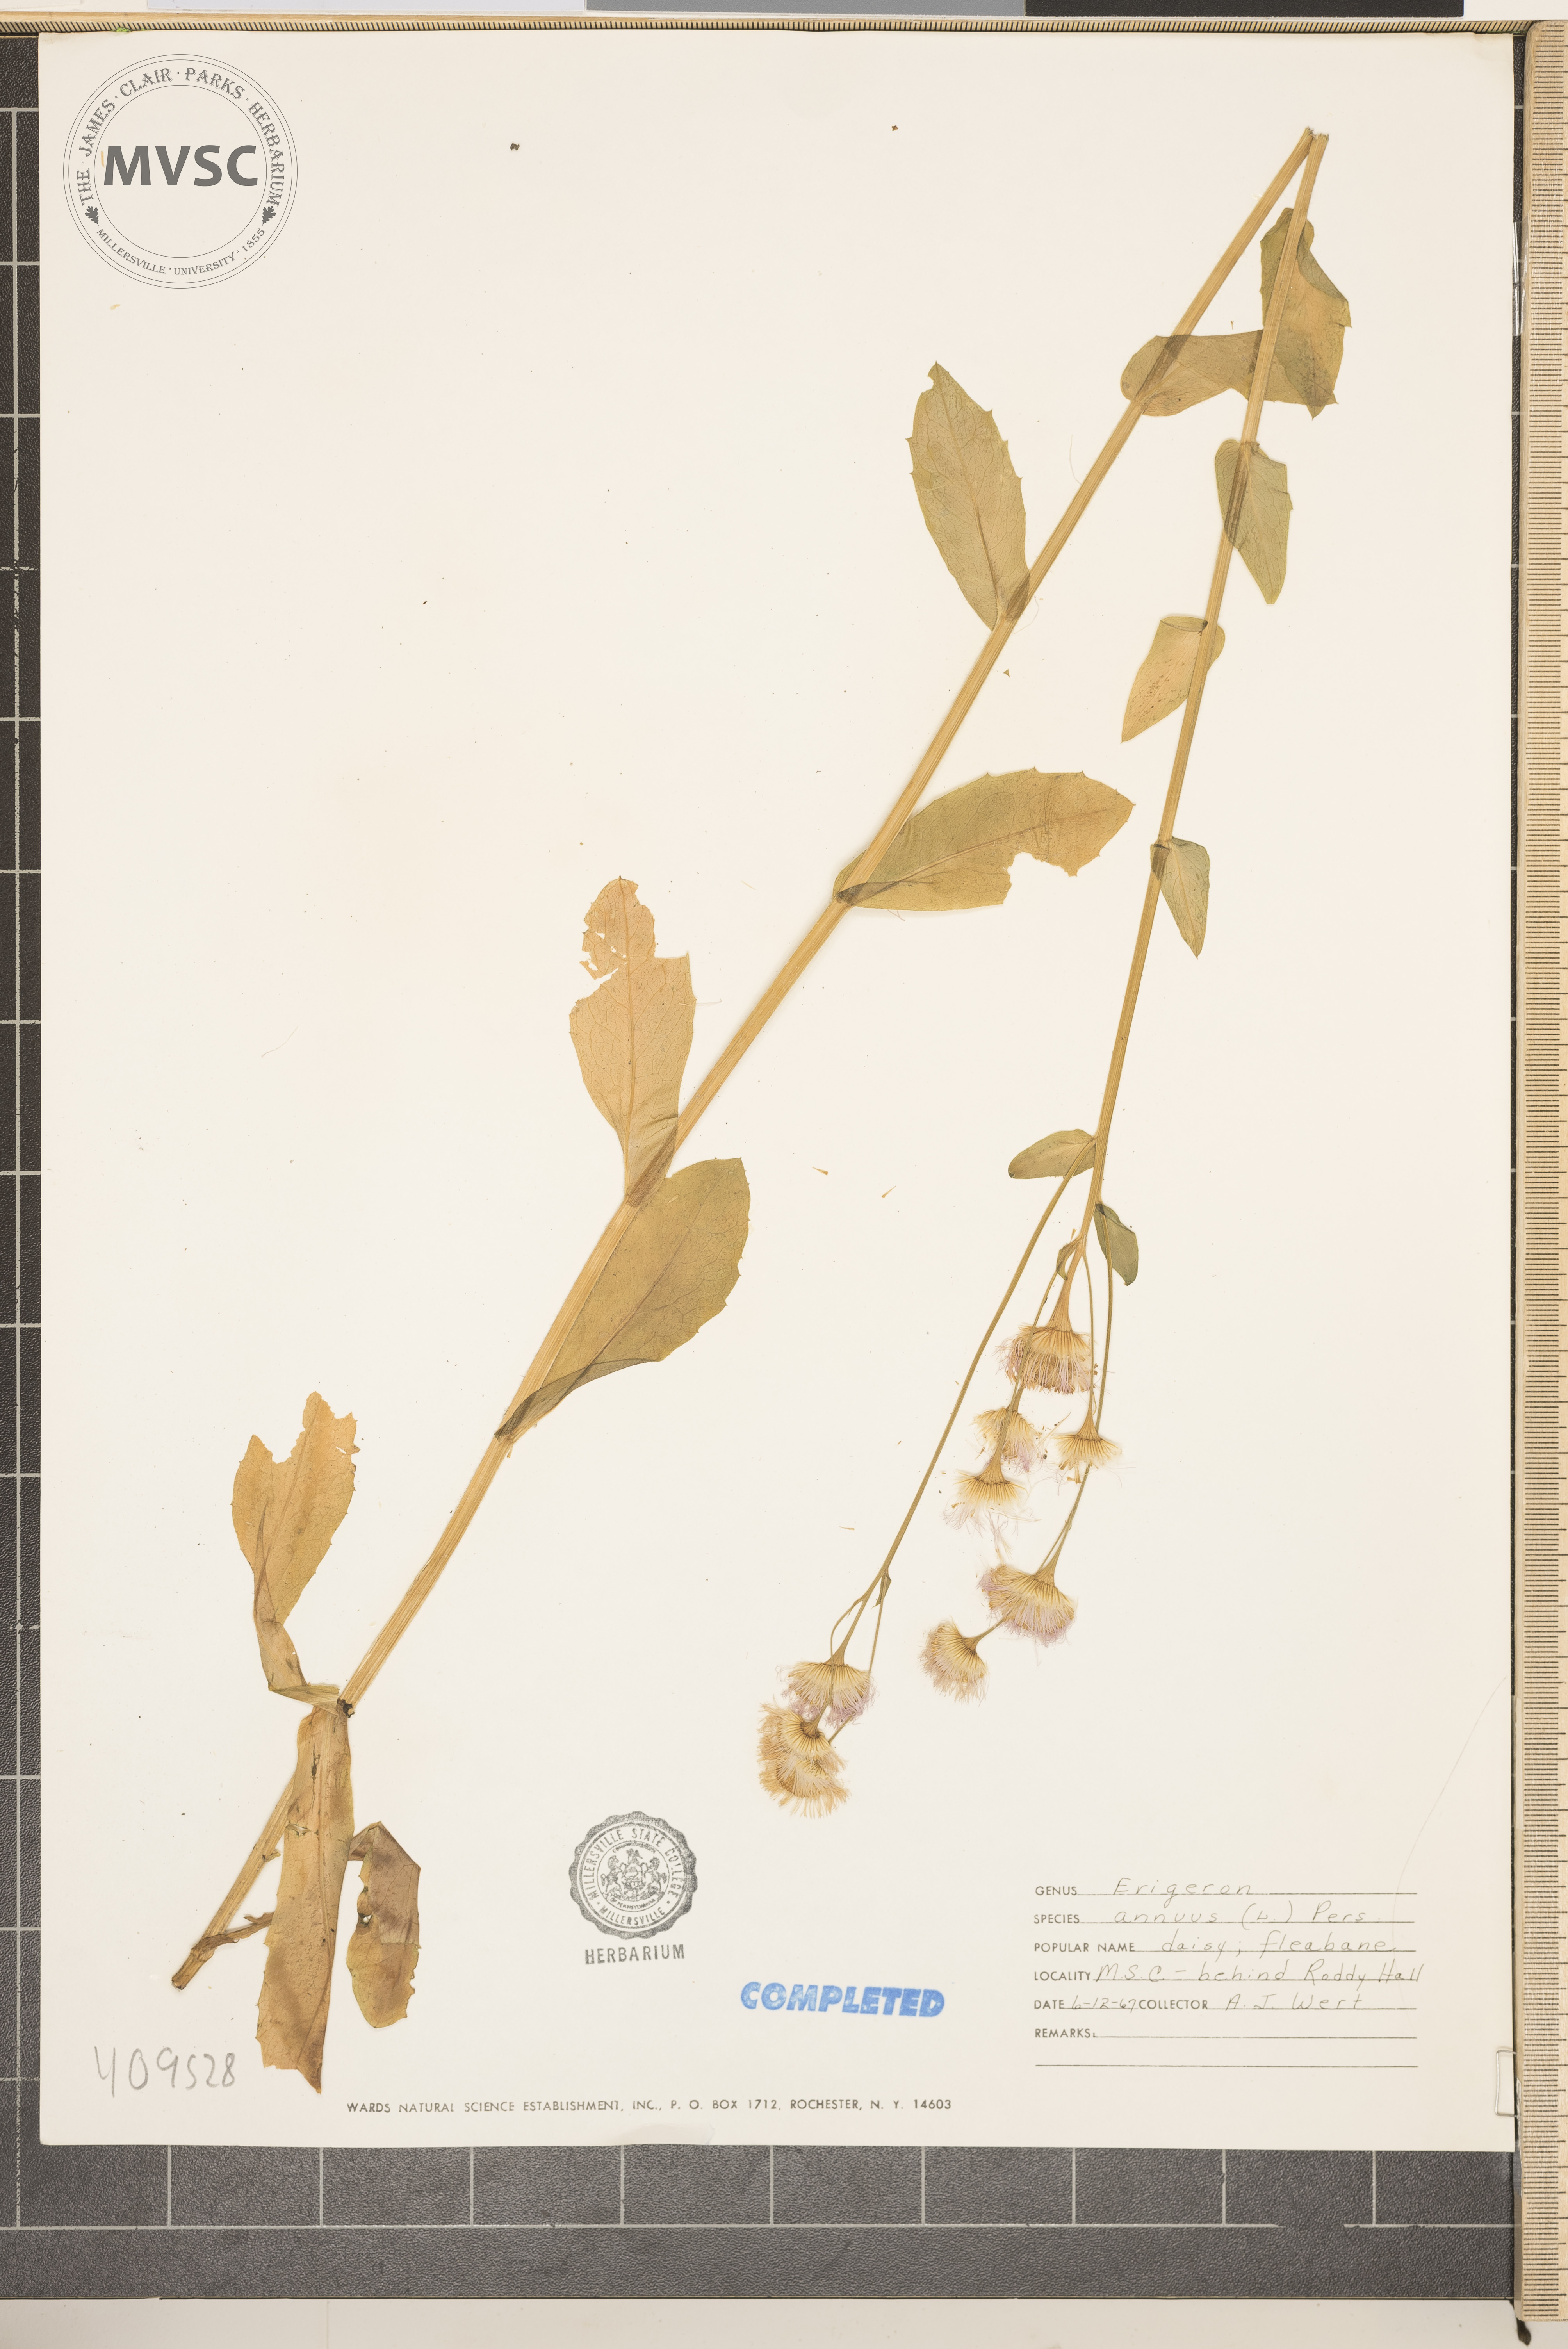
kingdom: Plantae
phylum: Tracheophyta
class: Magnoliopsida
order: Asterales
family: Asteraceae
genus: Erigeron
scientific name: Erigeron annuus
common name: Tall fleabane
